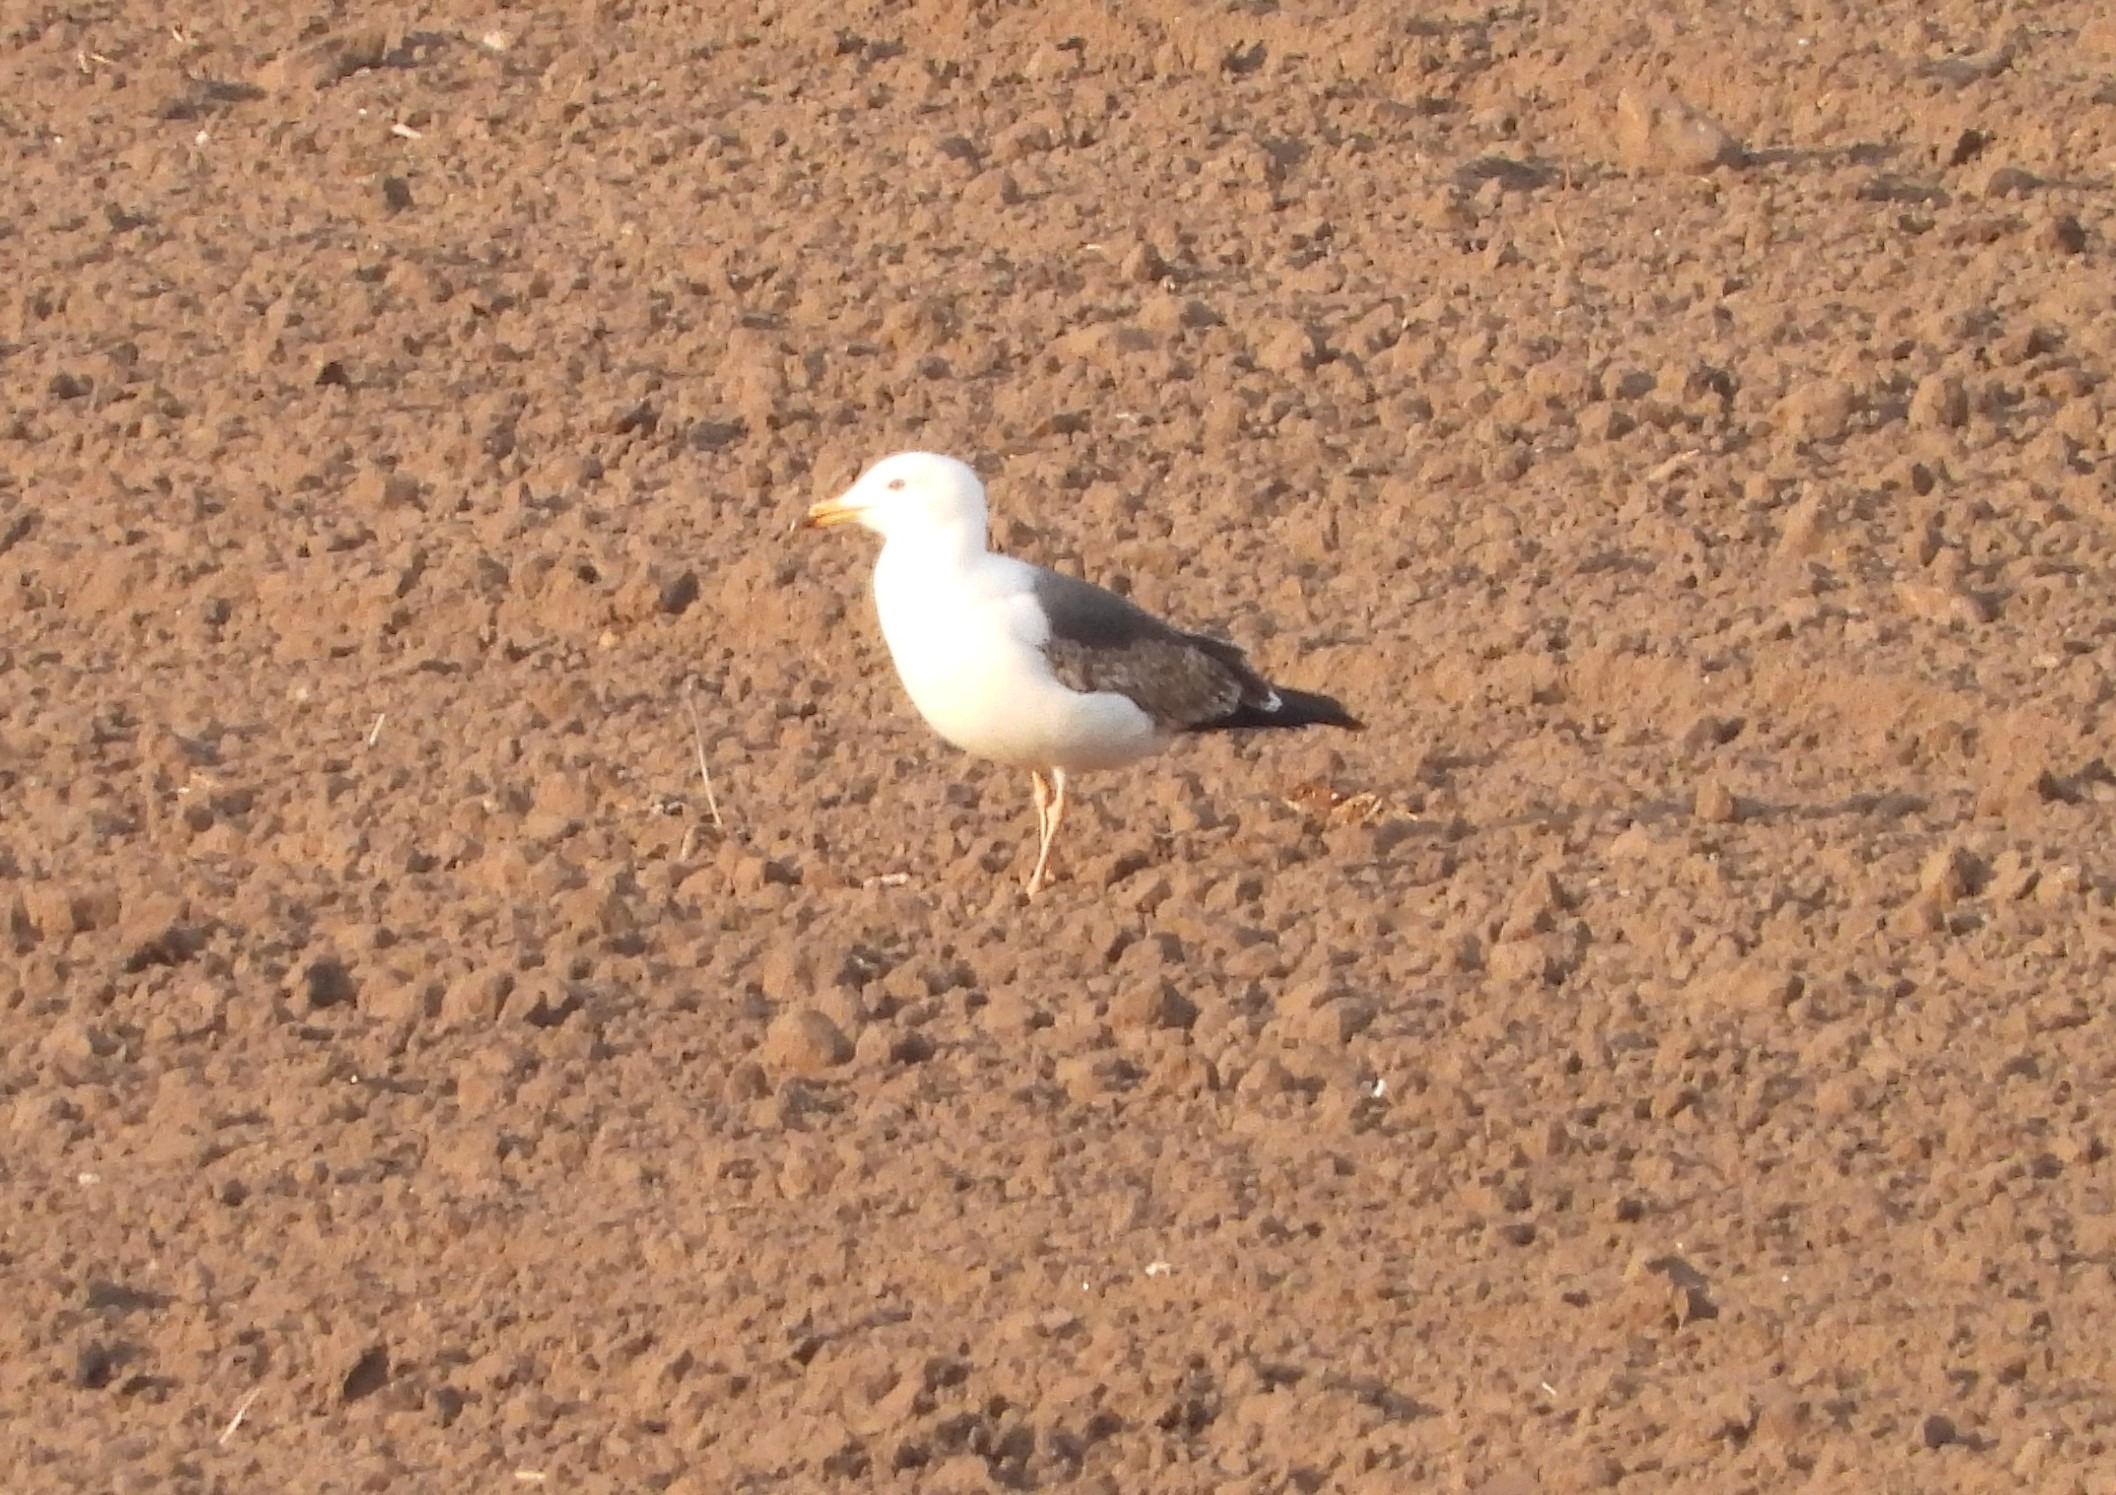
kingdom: Animalia
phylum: Chordata
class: Aves
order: Charadriiformes
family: Laridae
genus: Larus
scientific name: Larus fuscus
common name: Sildemåge
